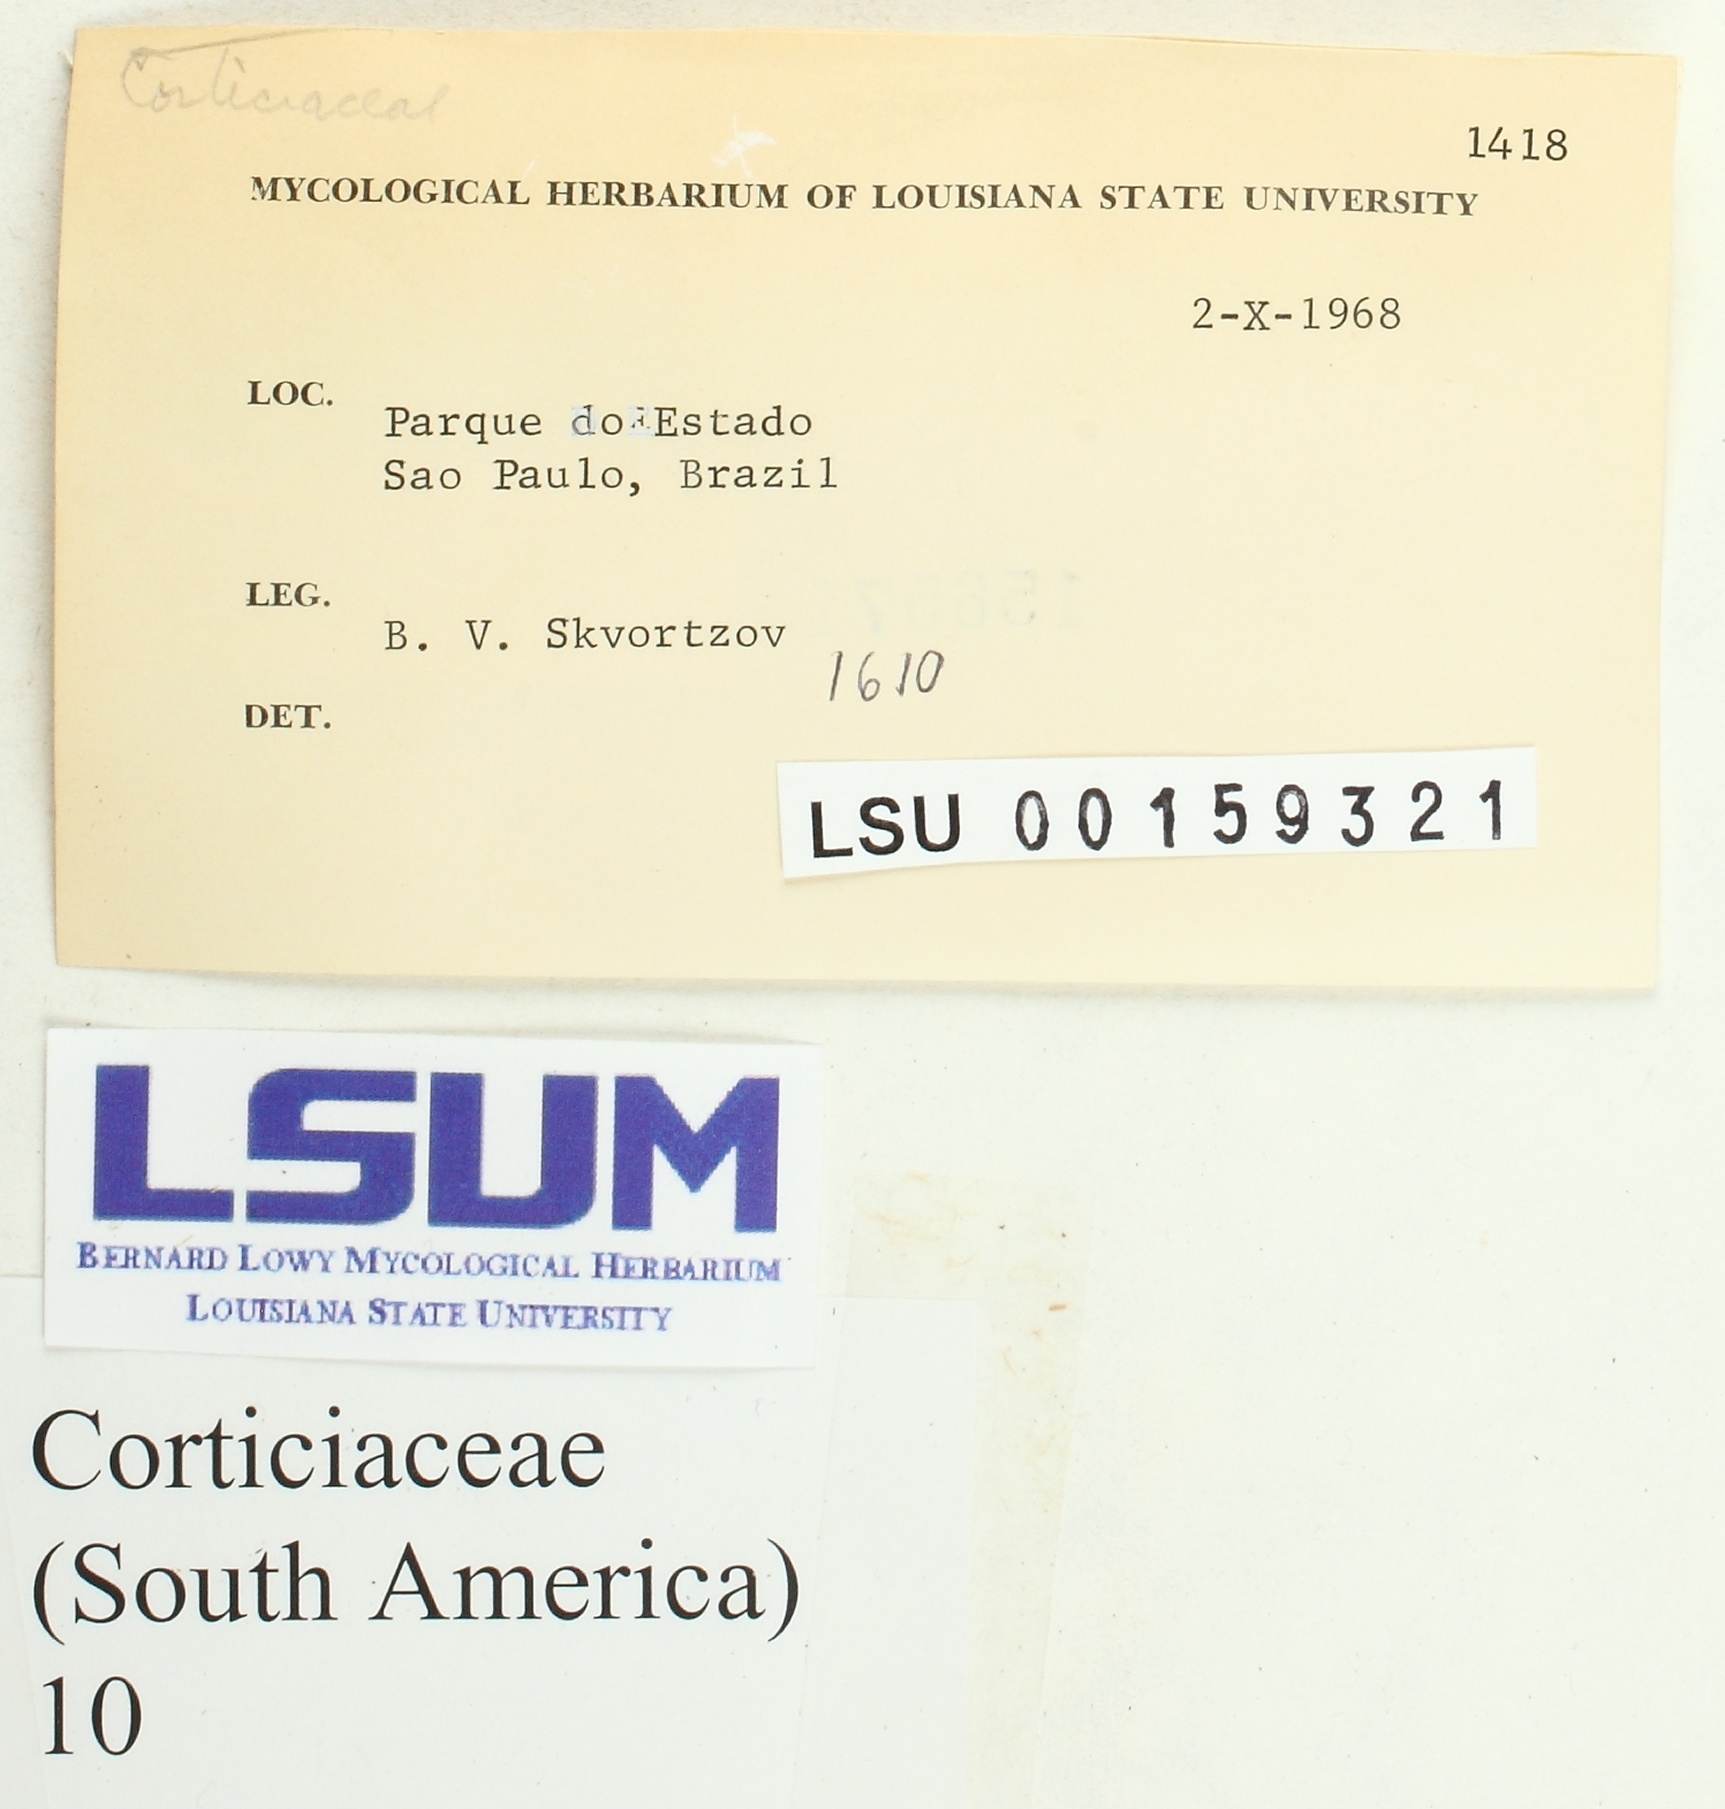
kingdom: Fungi
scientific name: Fungi
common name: Fungi
